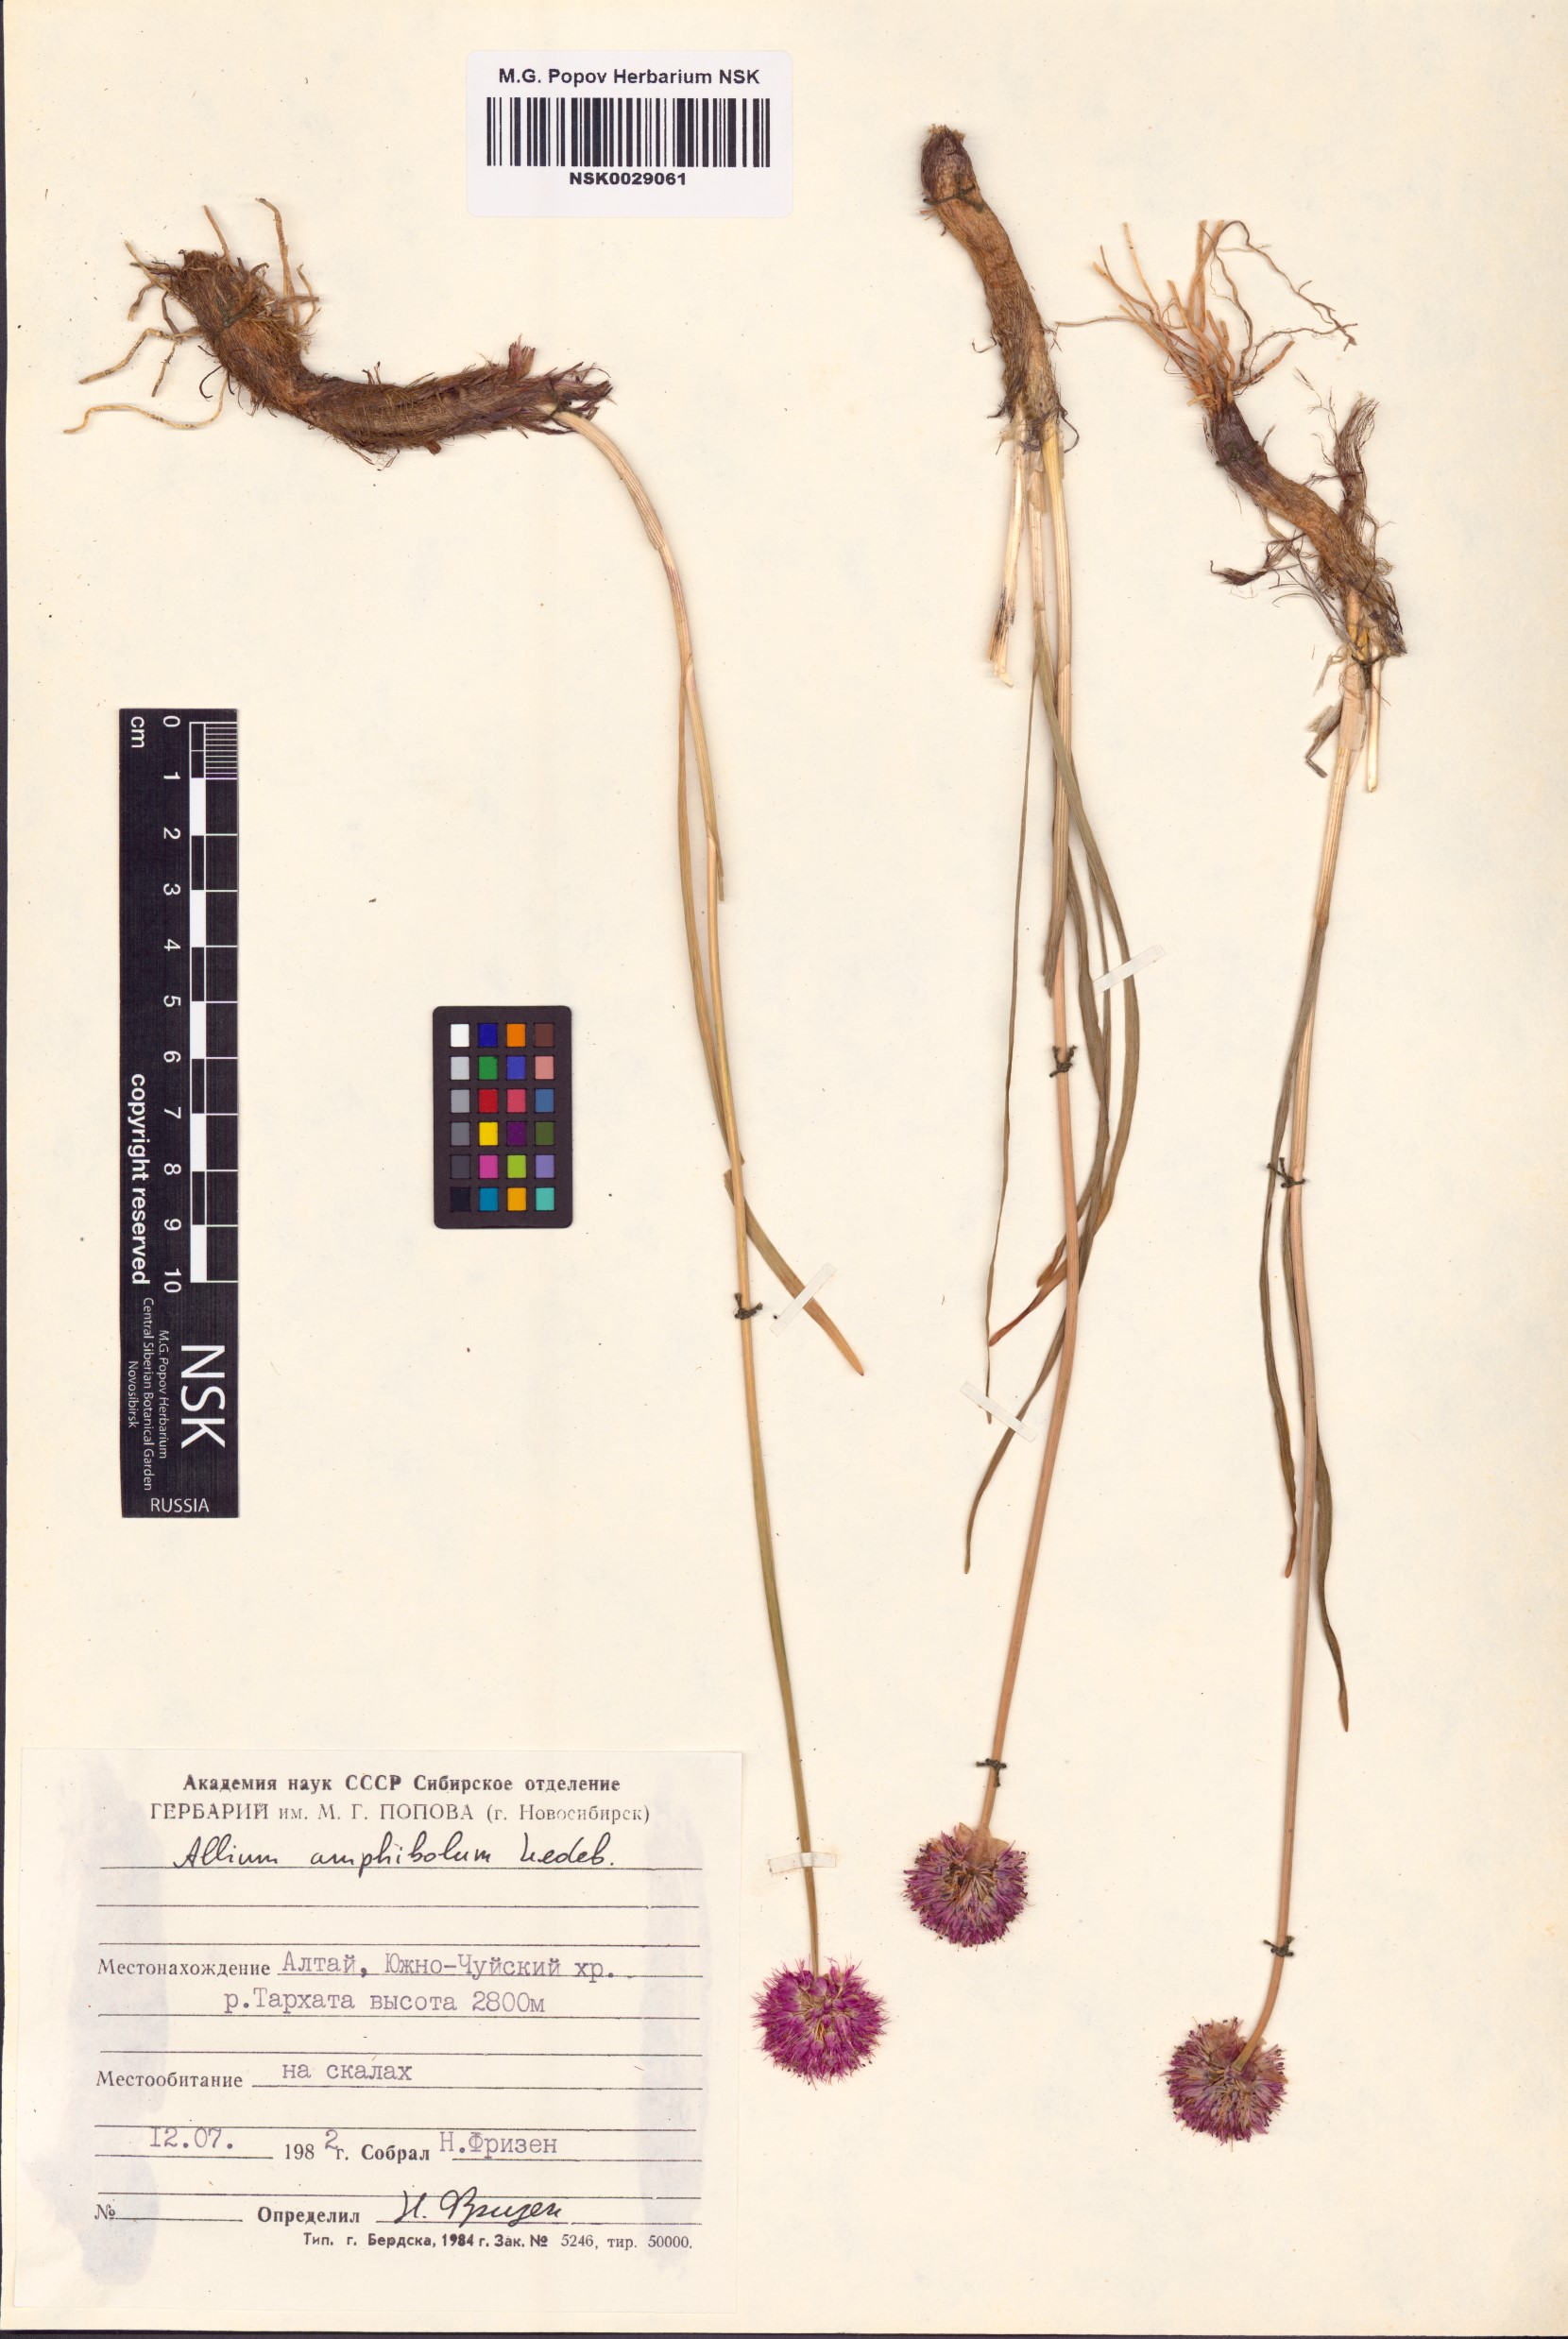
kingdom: Plantae
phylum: Tracheophyta
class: Liliopsida
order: Asparagales
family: Amaryllidaceae
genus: Allium
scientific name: Allium amphibolum
